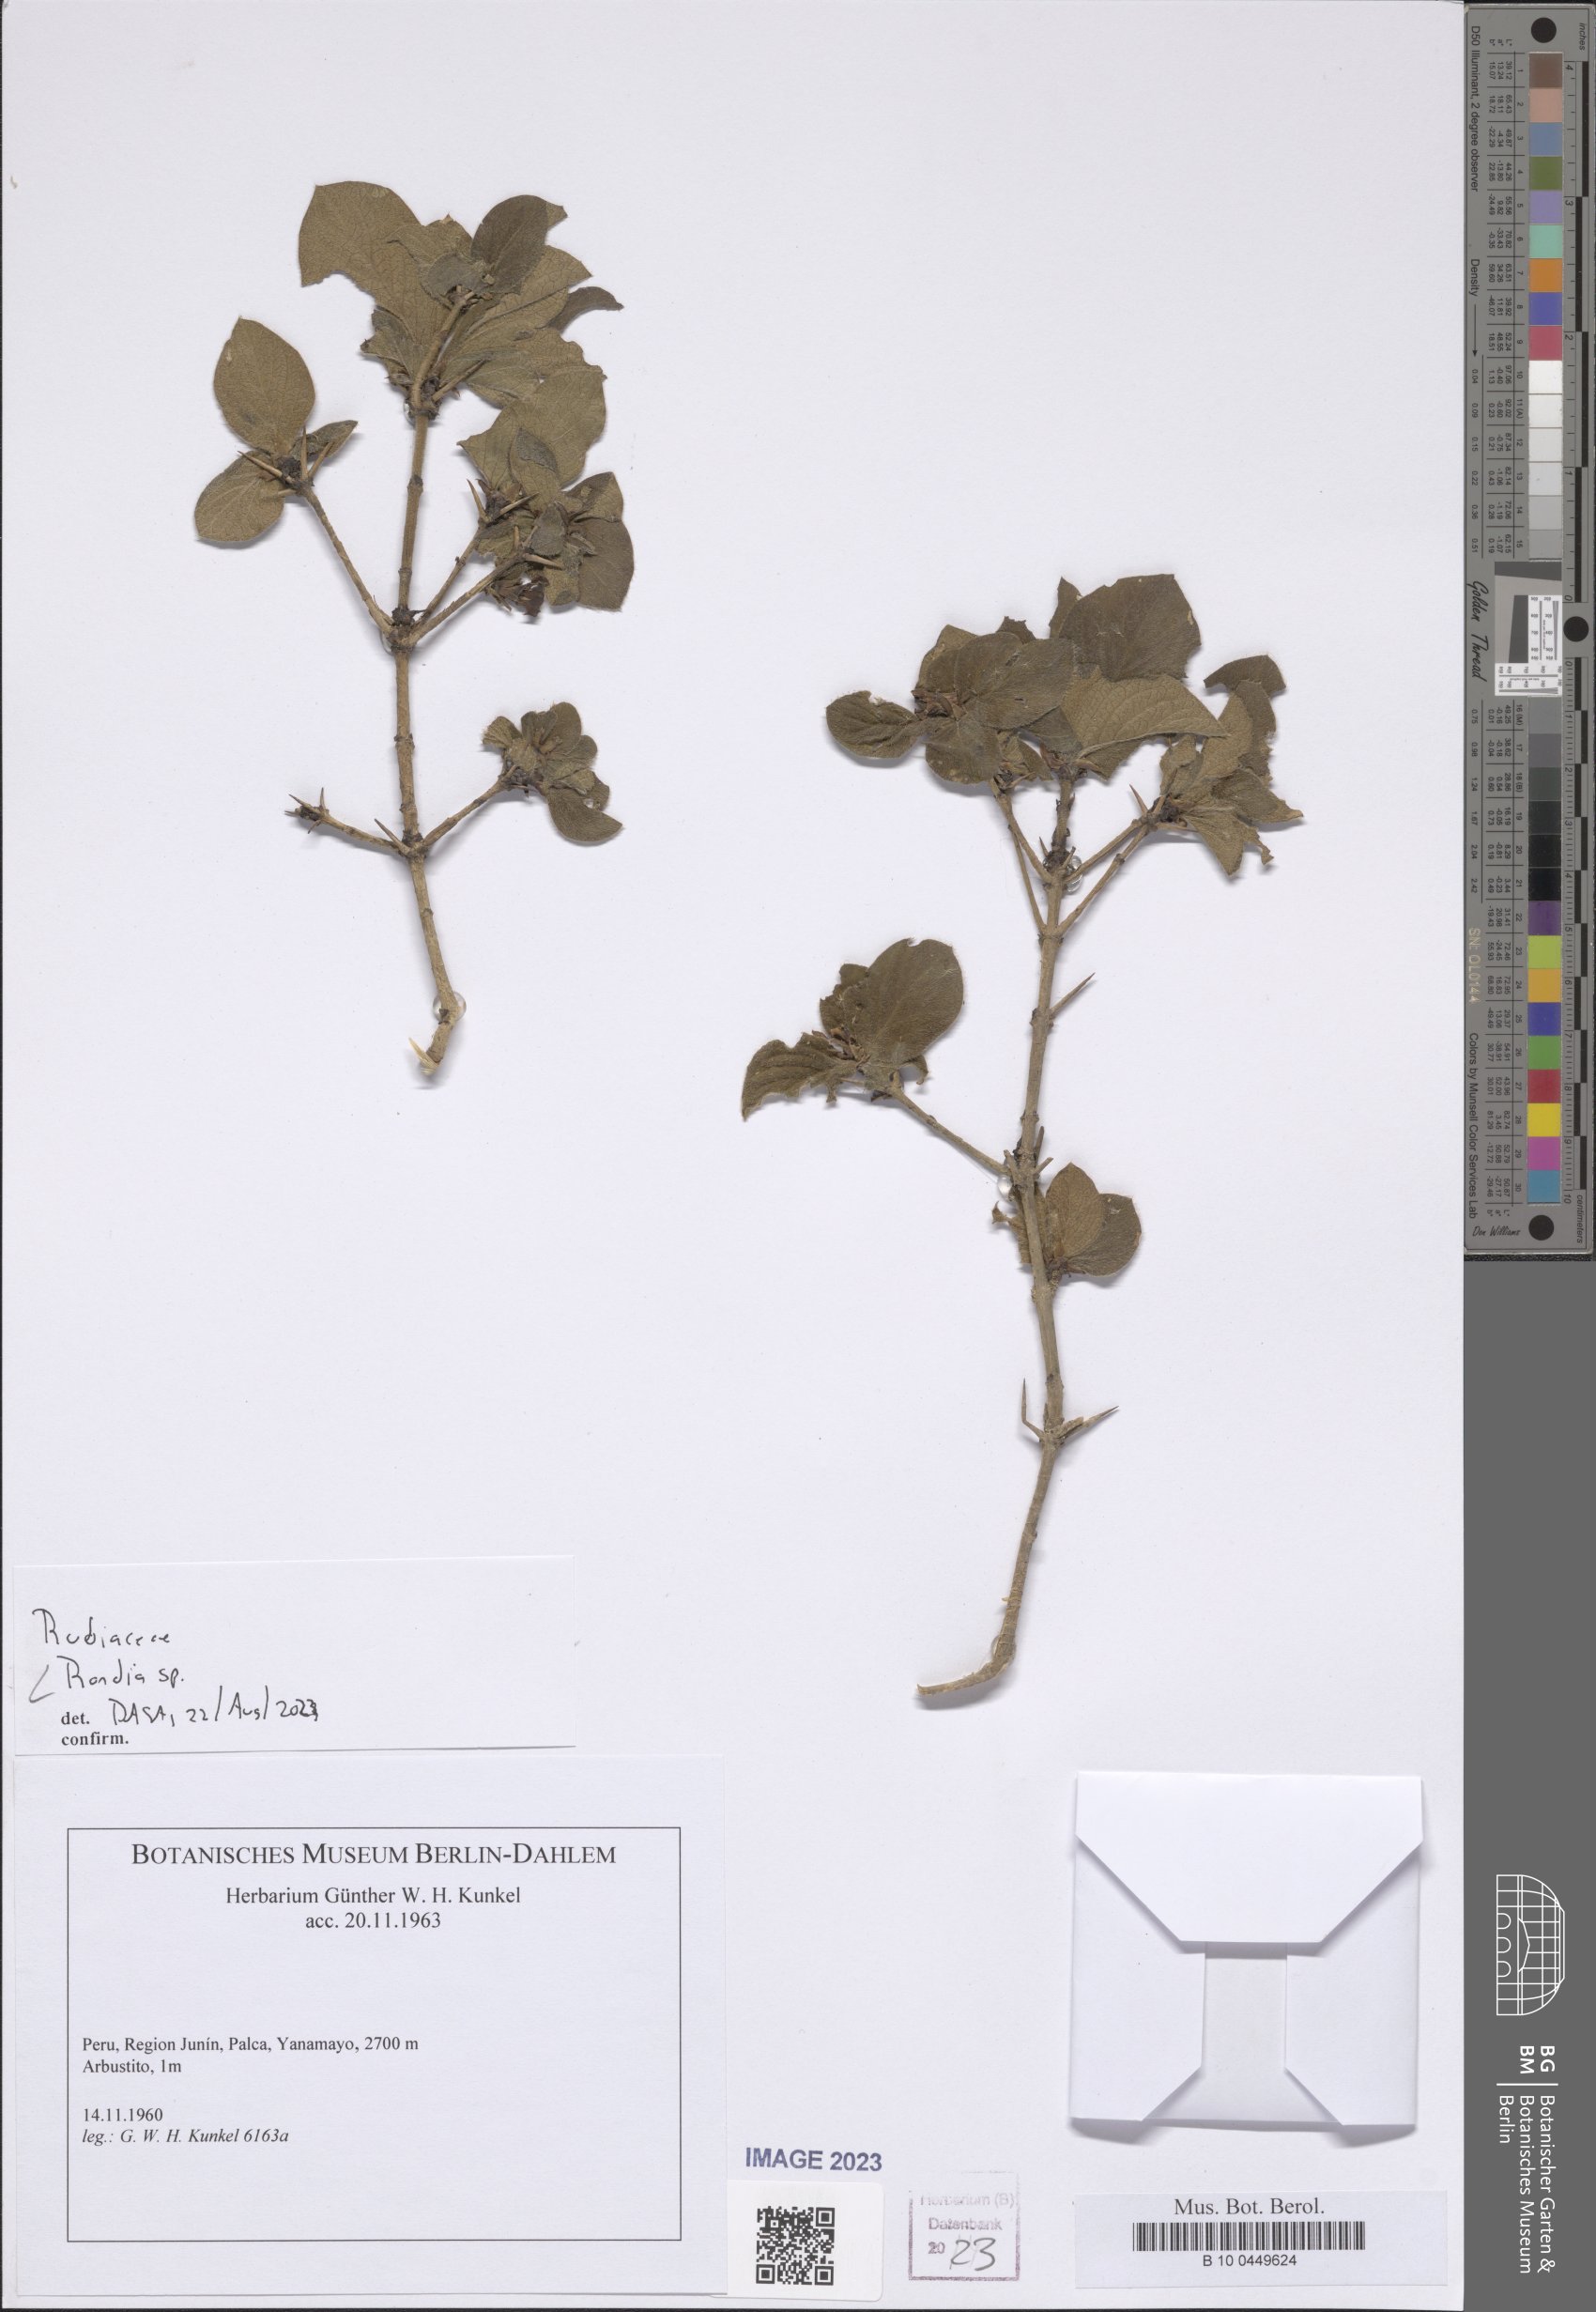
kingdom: Plantae
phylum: Tracheophyta
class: Magnoliopsida
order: Gentianales
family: Rubiaceae
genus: Randia
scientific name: Randia
